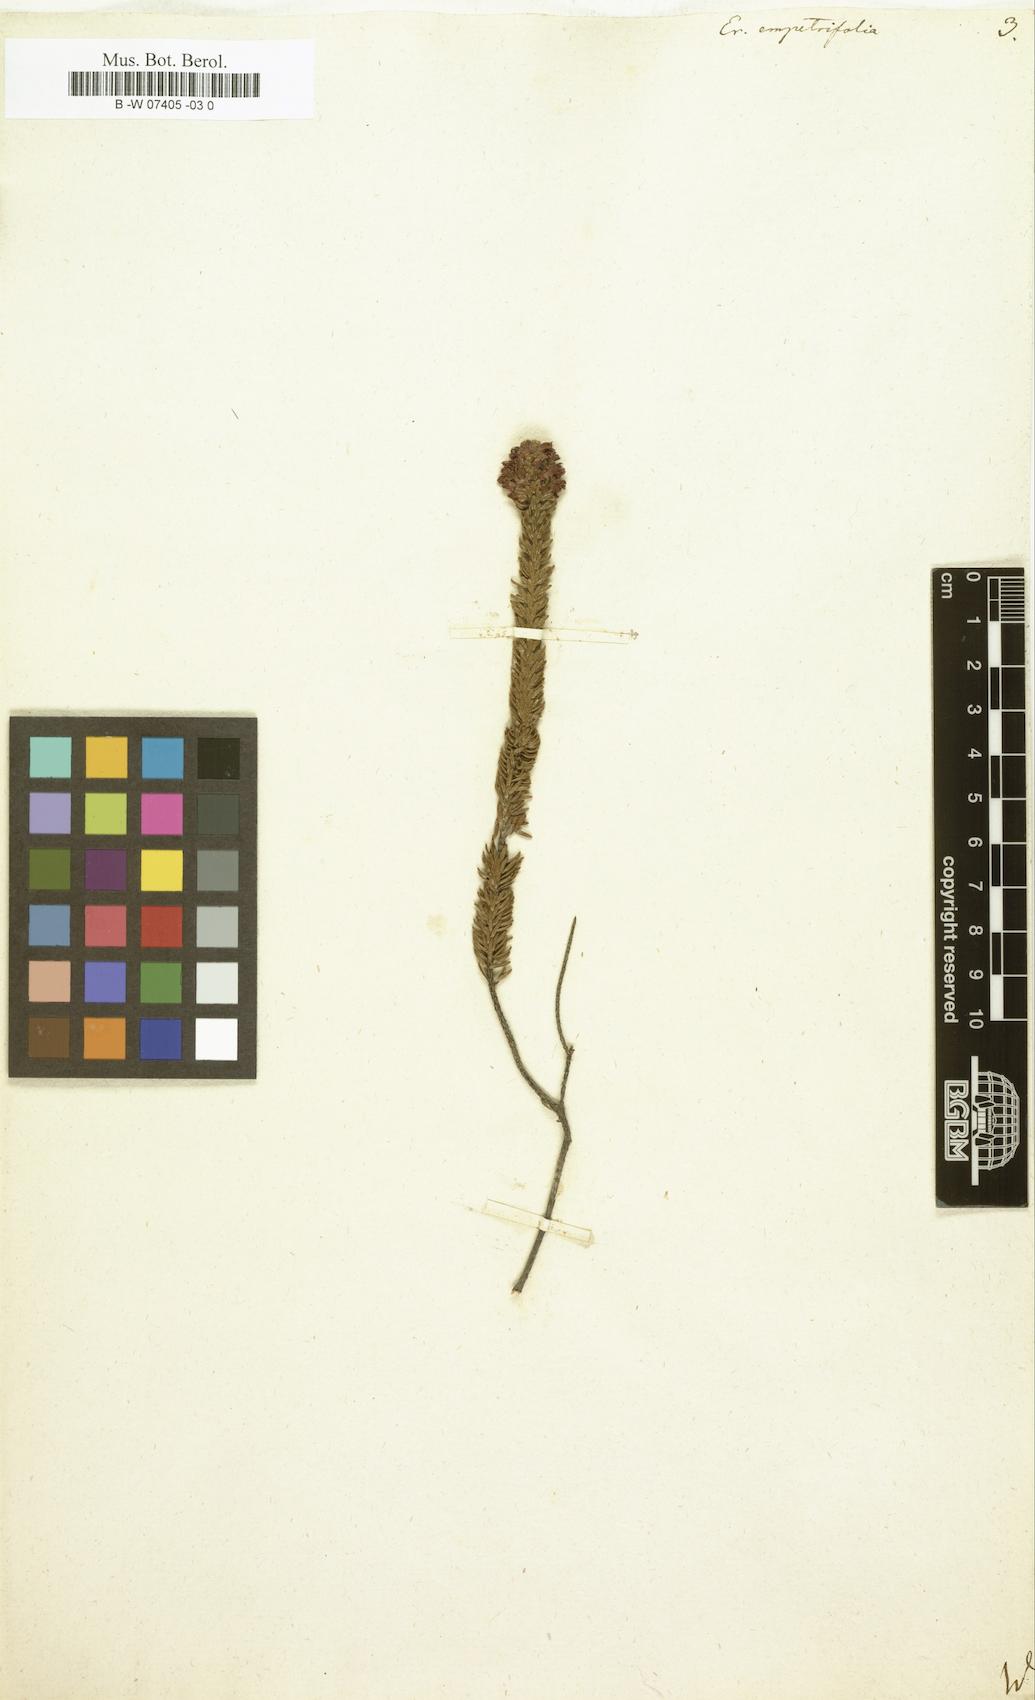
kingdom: Plantae
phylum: Tracheophyta
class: Magnoliopsida
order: Ericales
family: Ericaceae
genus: Erica
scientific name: Erica empetrina
